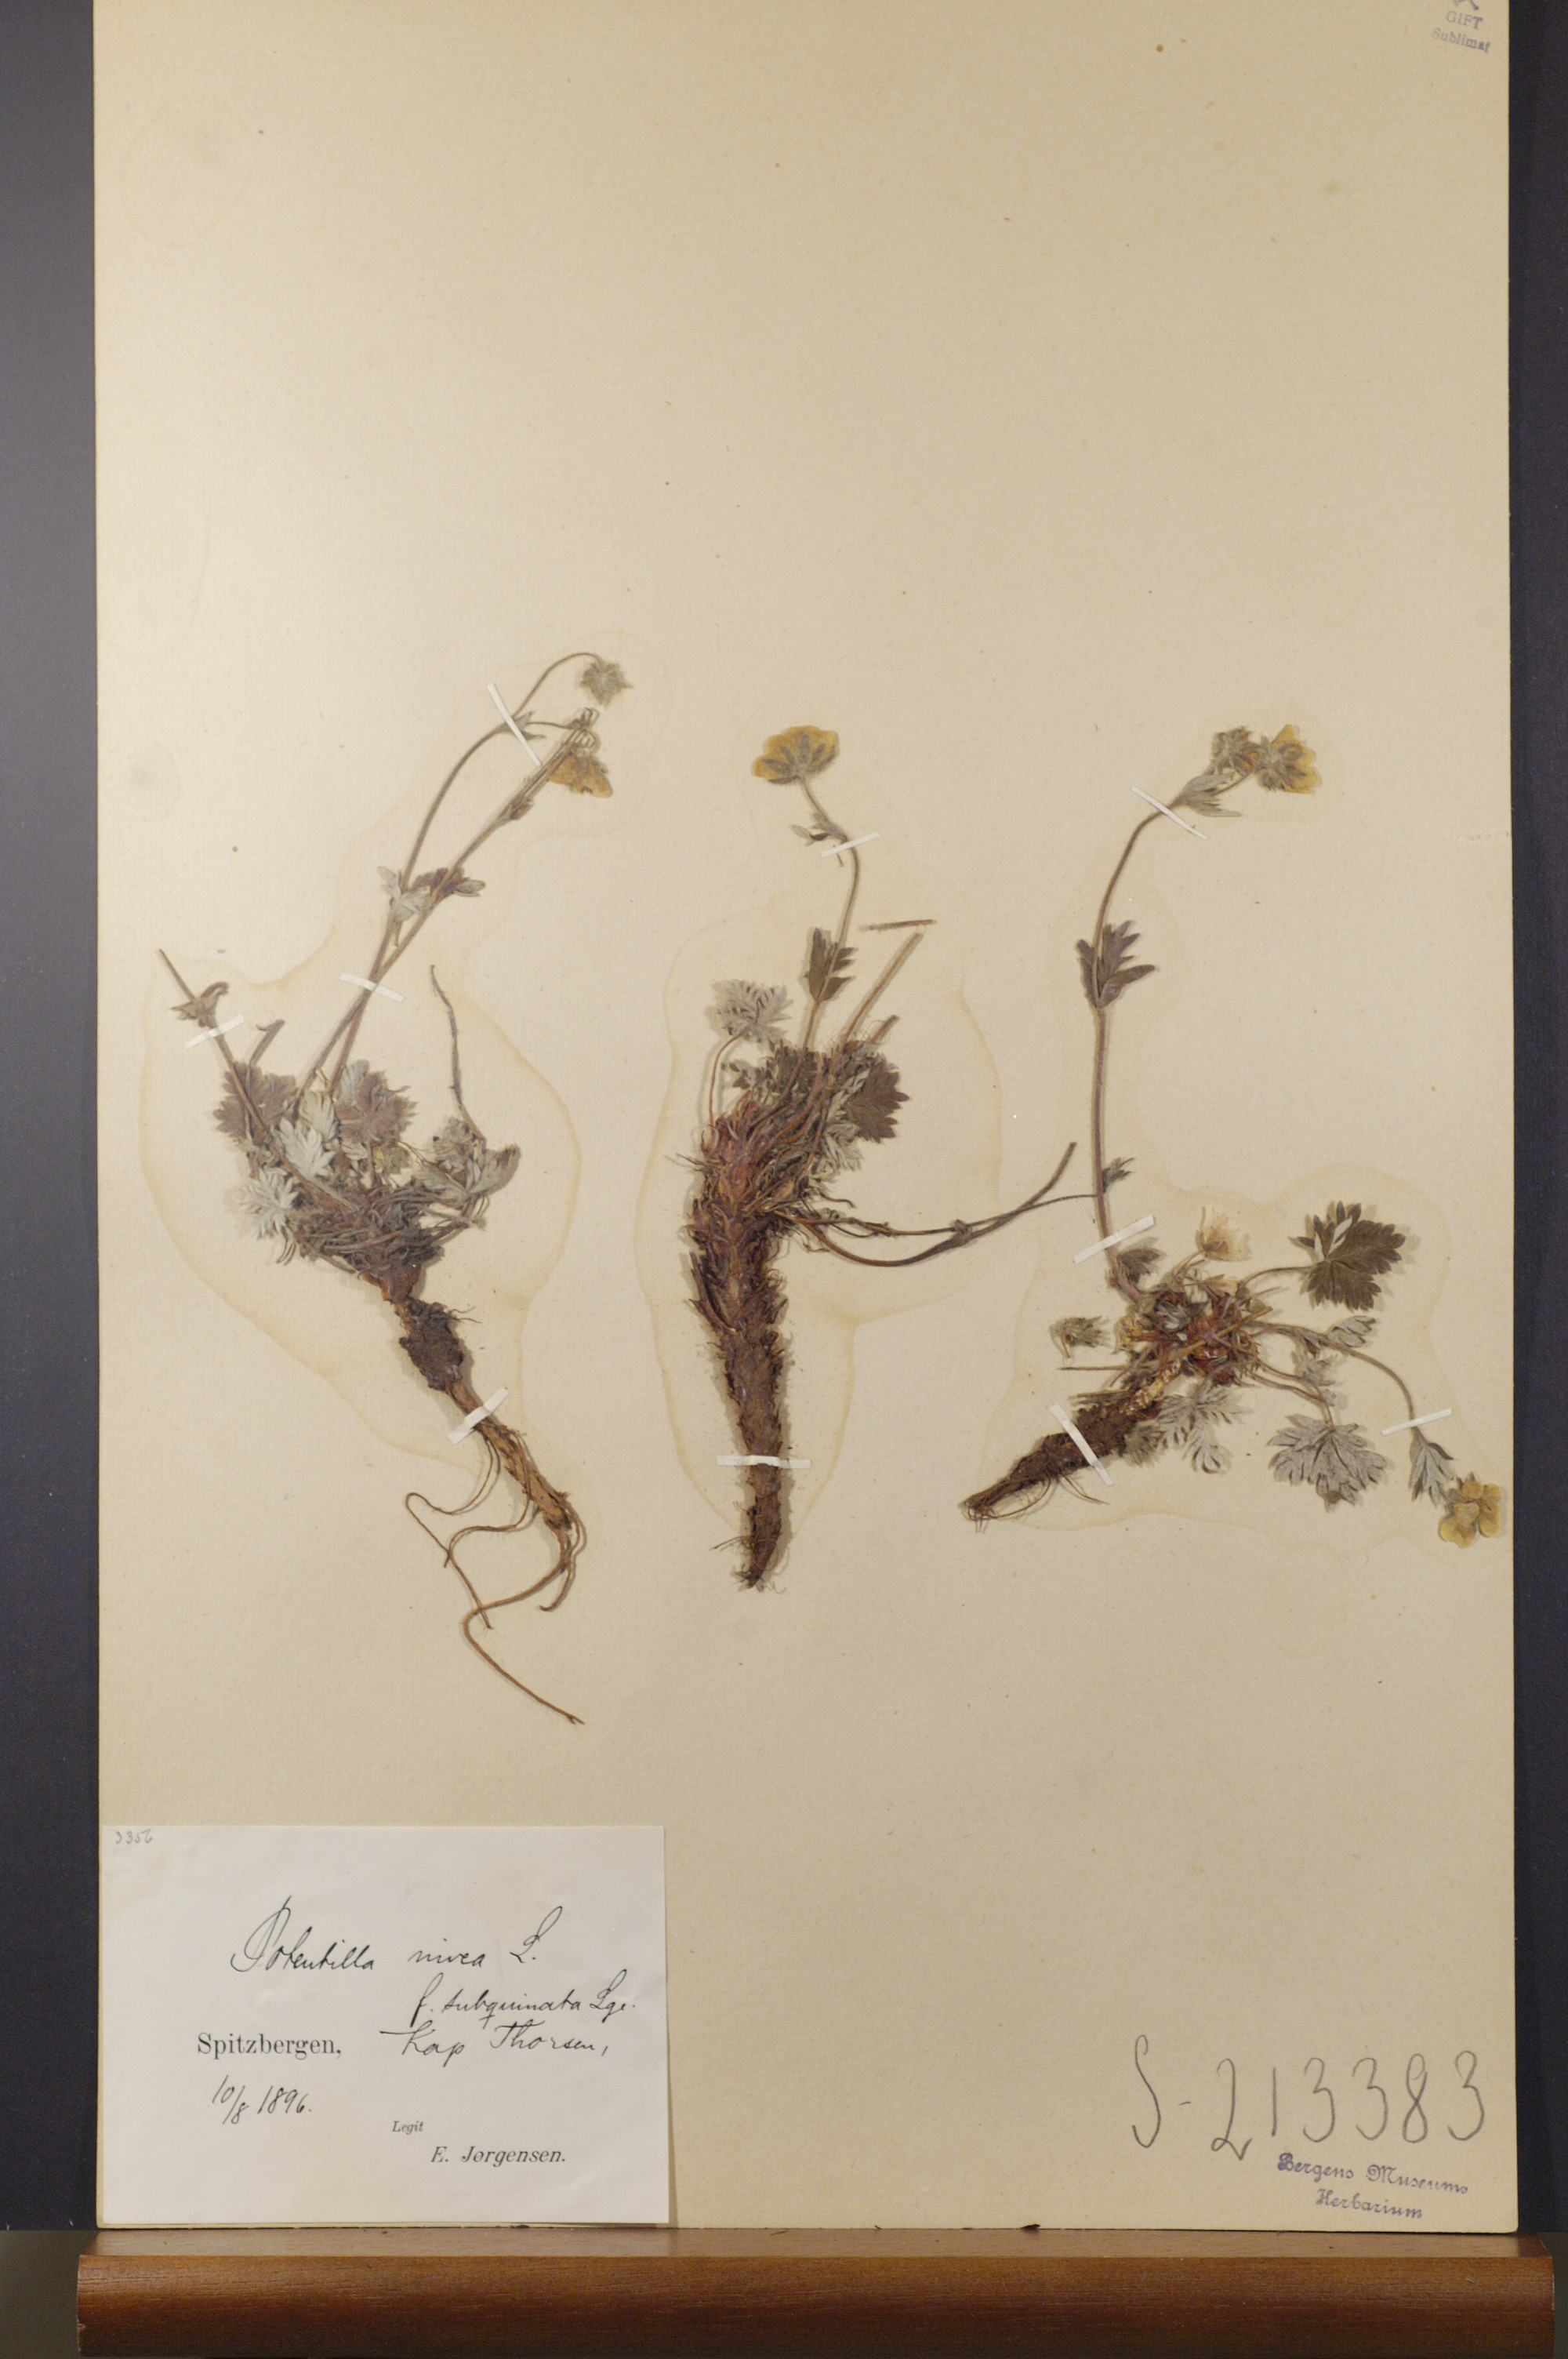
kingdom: Plantae
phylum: Tracheophyta
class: Magnoliopsida
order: Rosales
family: Rosaceae
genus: Potentilla
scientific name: Potentilla prostrata
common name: Prostrate cinquefoil
